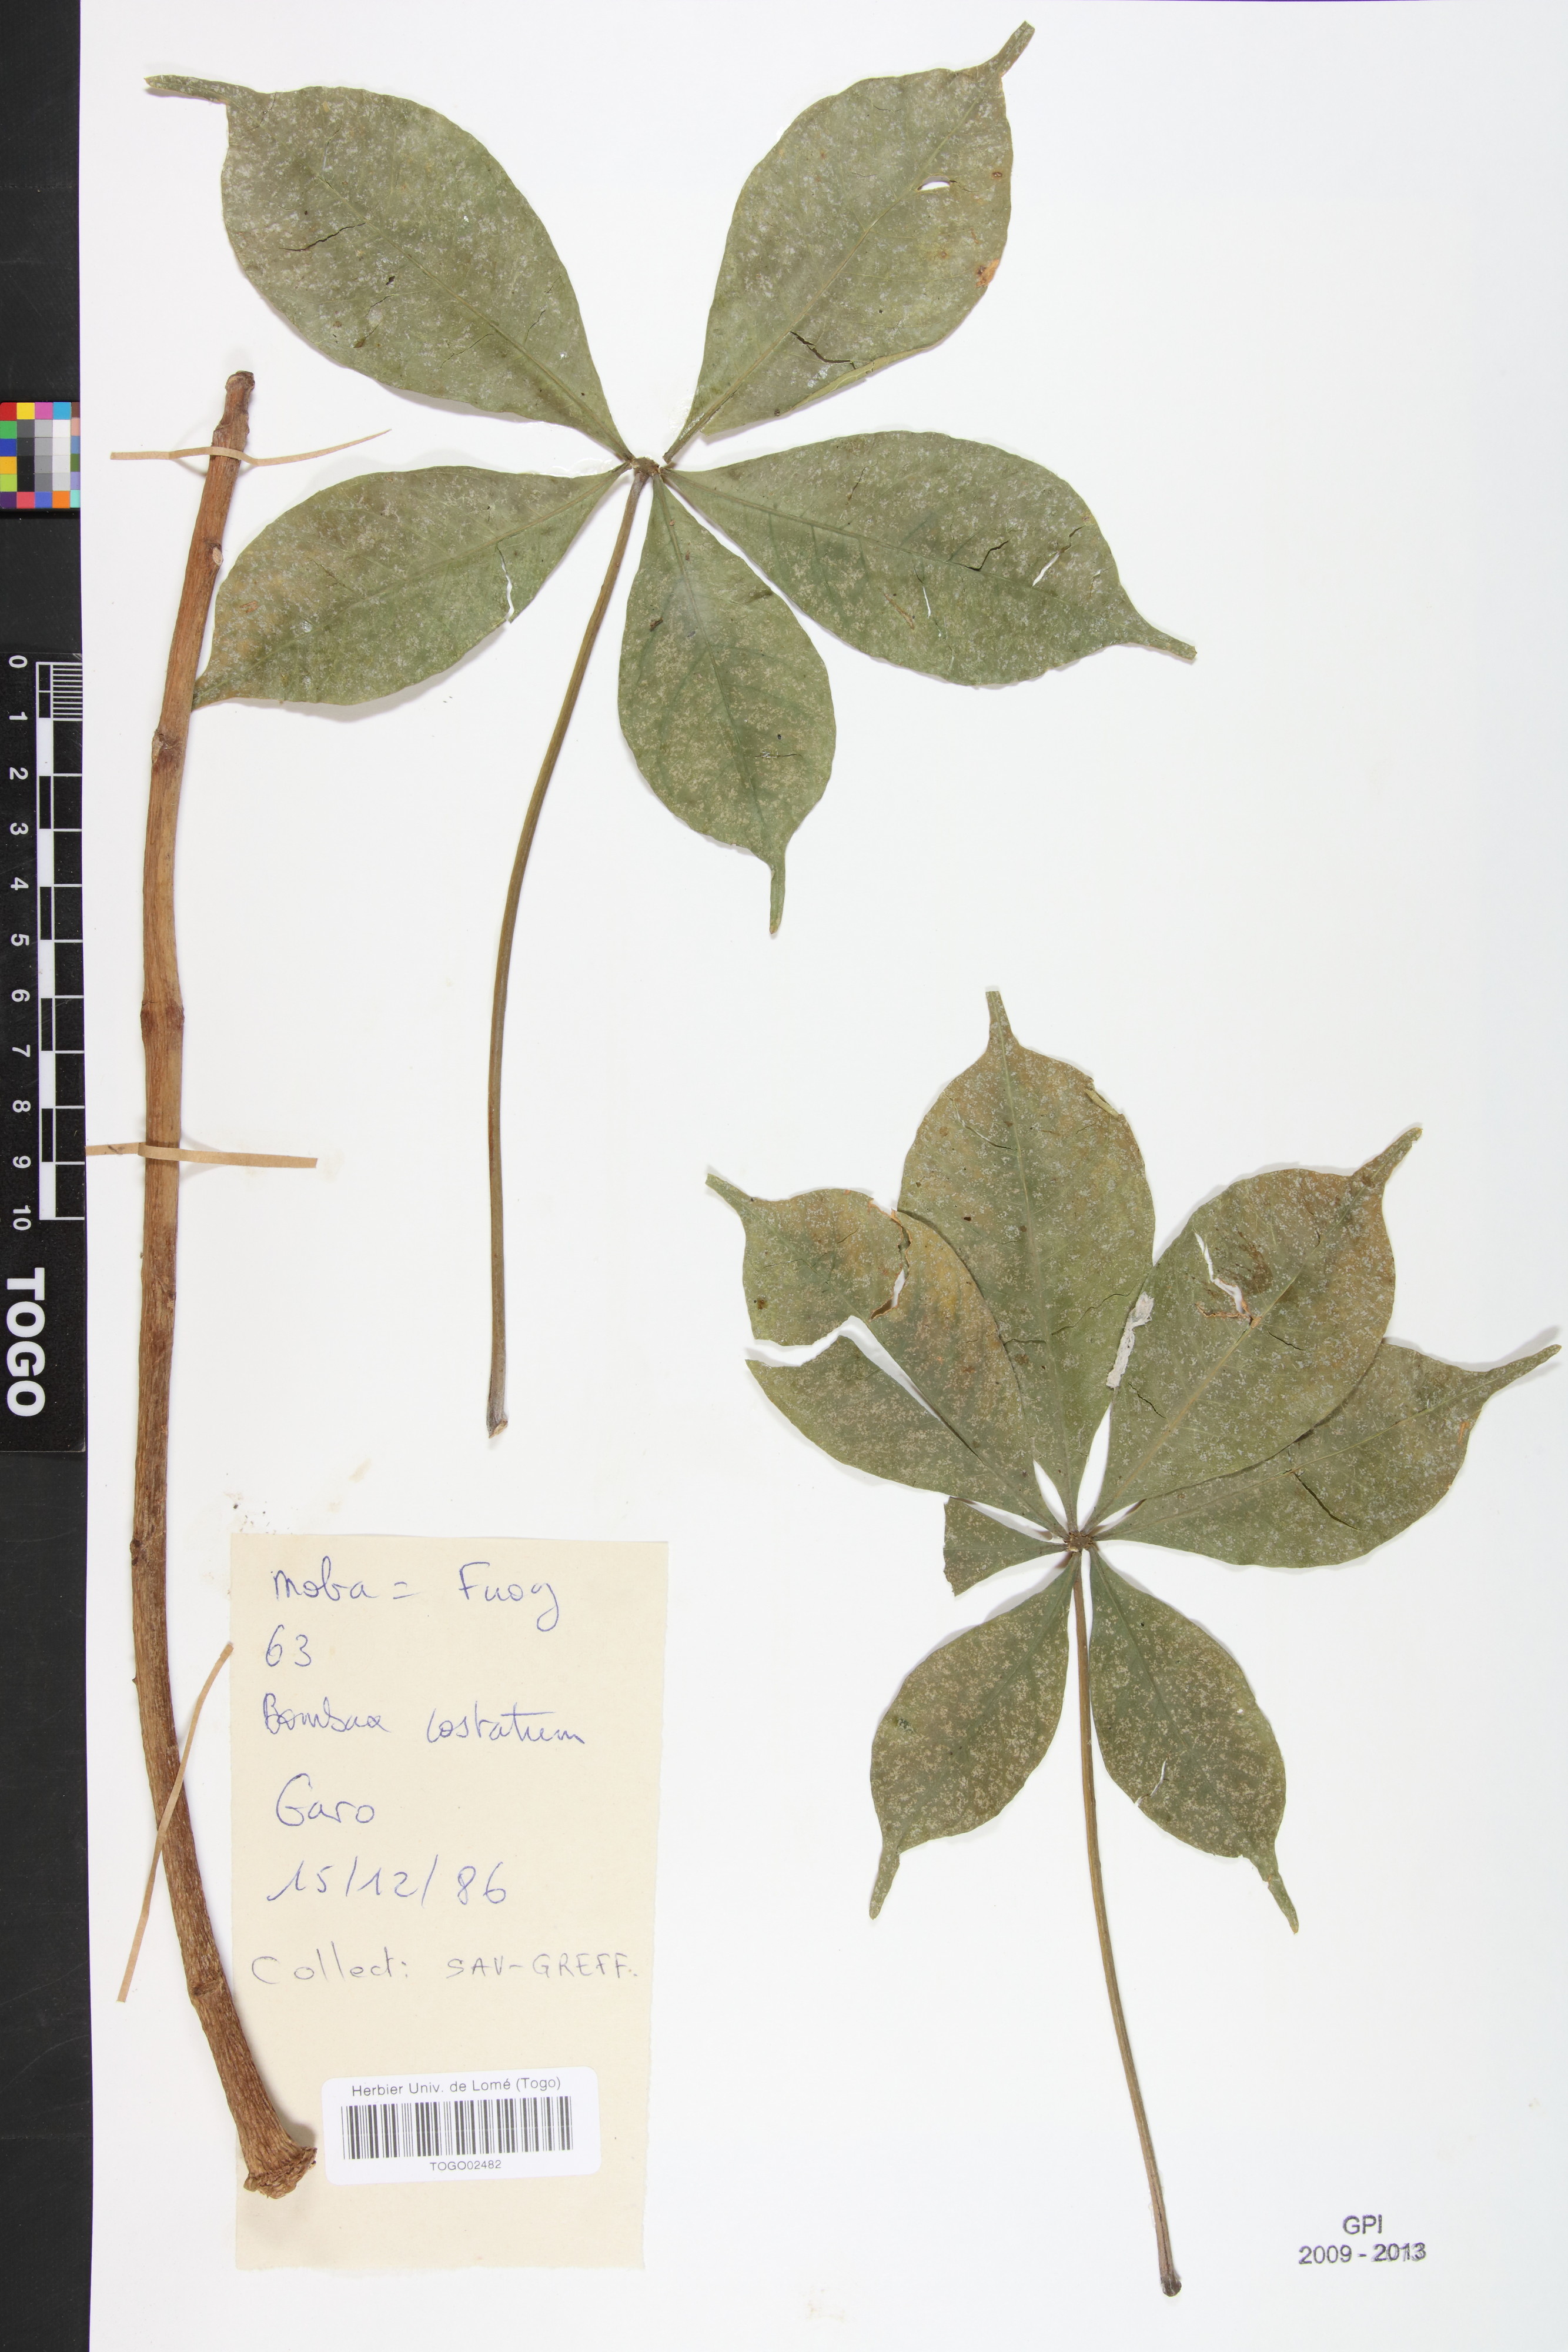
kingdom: Plantae
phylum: Tracheophyta
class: Magnoliopsida
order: Malvales
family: Malvaceae
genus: Bombax
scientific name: Bombax costatum
